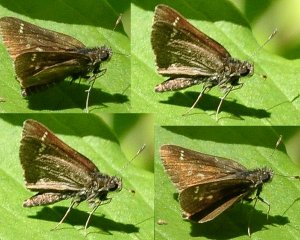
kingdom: Animalia
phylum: Arthropoda
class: Insecta
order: Lepidoptera
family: Hesperiidae
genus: Polites
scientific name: Polites egeremet
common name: Northern Broken-Dash
